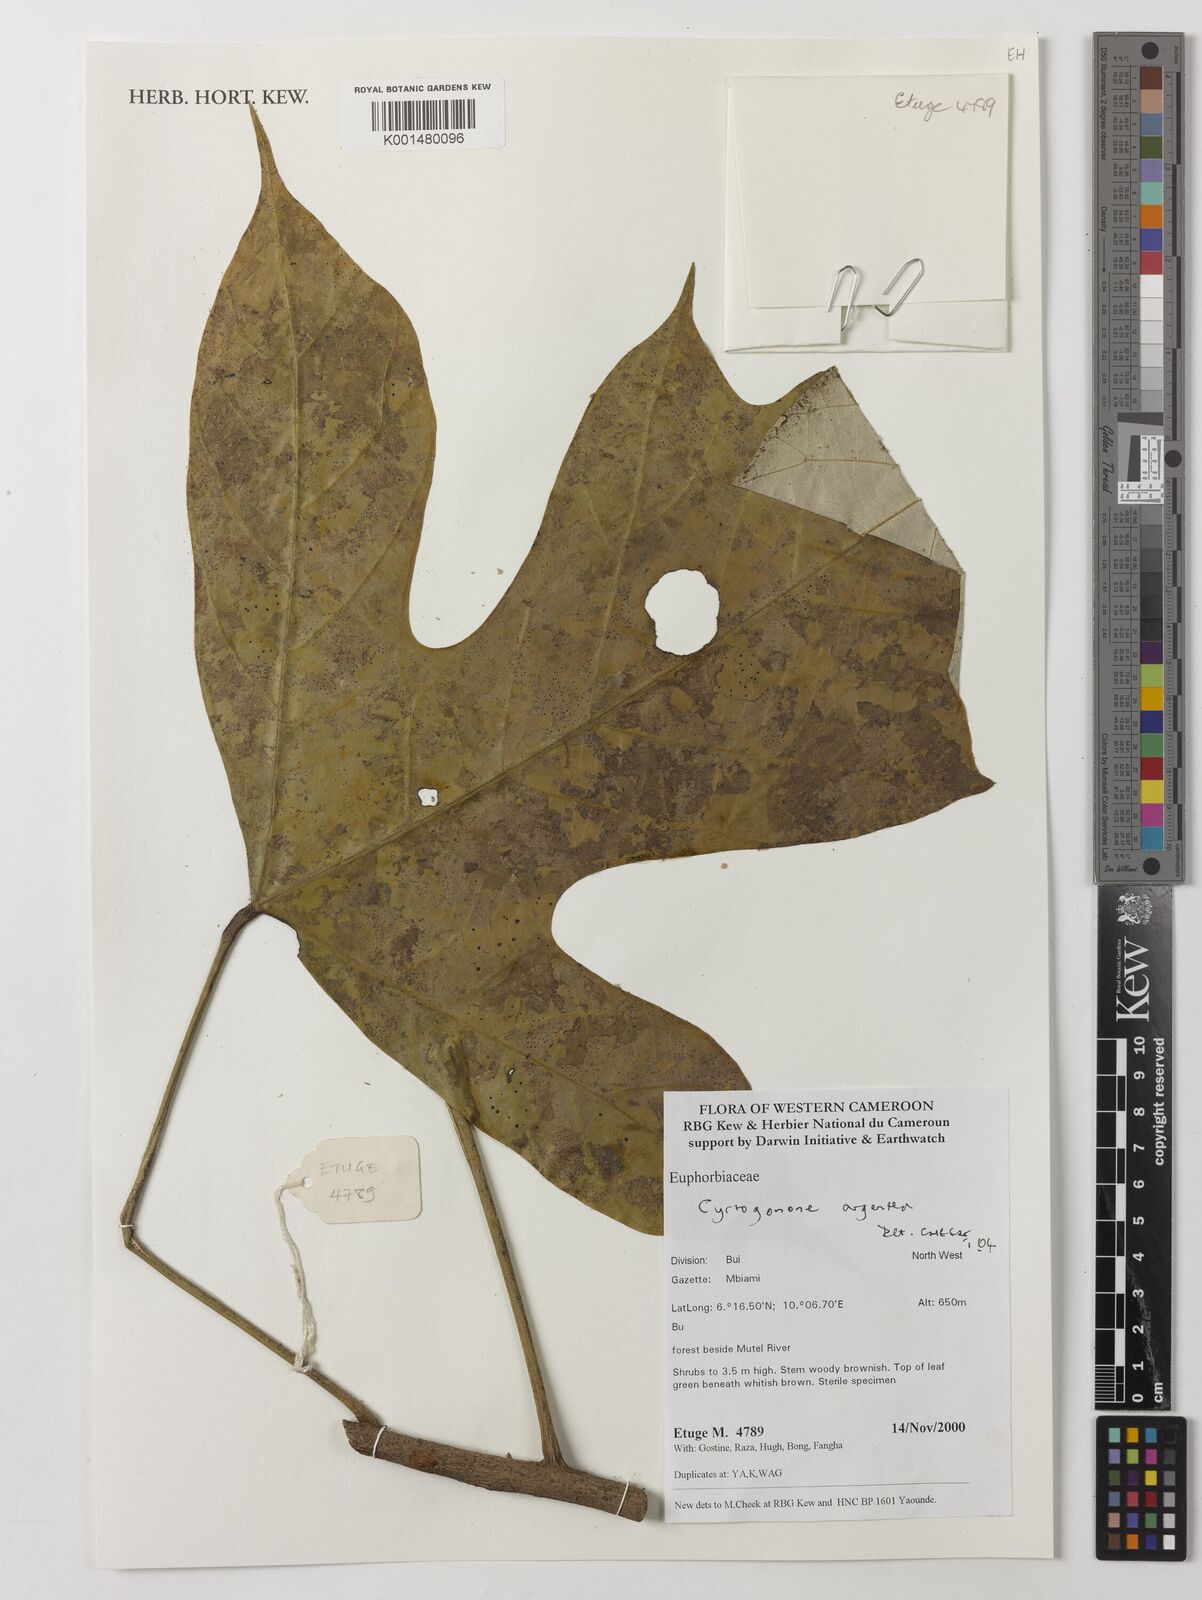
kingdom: Plantae
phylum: Tracheophyta
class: Magnoliopsida
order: Malpighiales
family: Euphorbiaceae
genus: Cyrtogonone
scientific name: Cyrtogonone argentea
